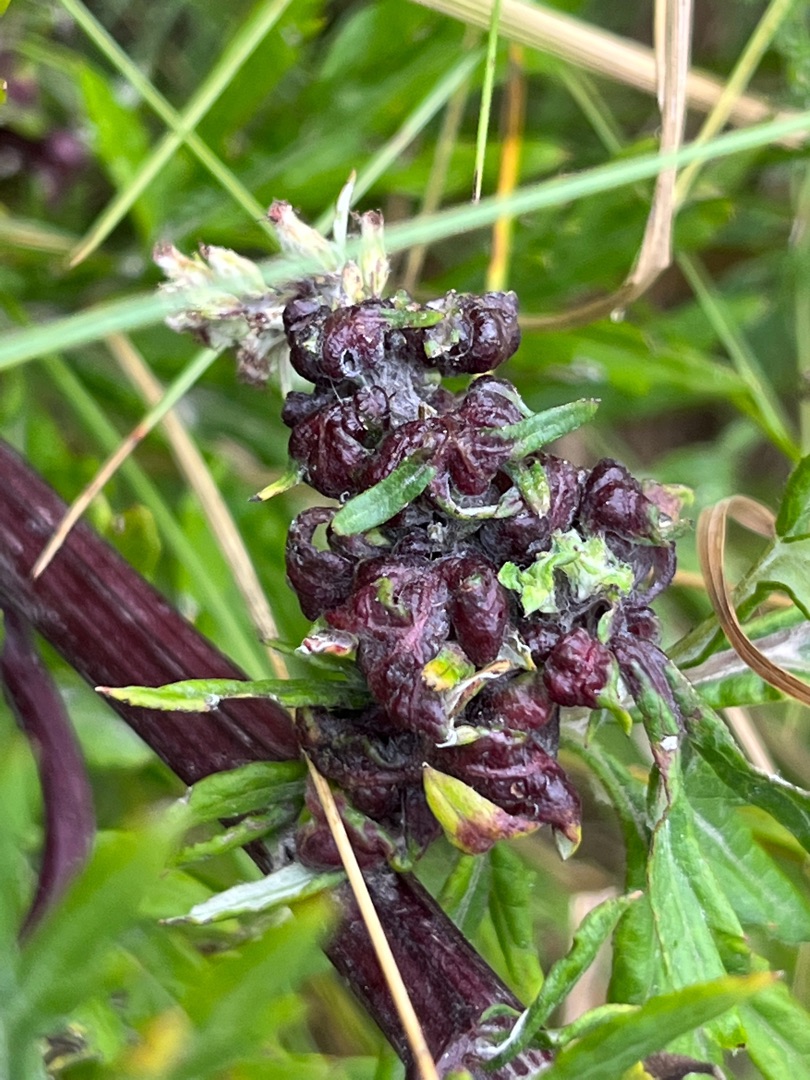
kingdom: Animalia
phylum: Arthropoda
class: Insecta
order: Hemiptera
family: Aphididae
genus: Cryptosiphum
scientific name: Cryptosiphum artemisiae
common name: Bynkegallelus
